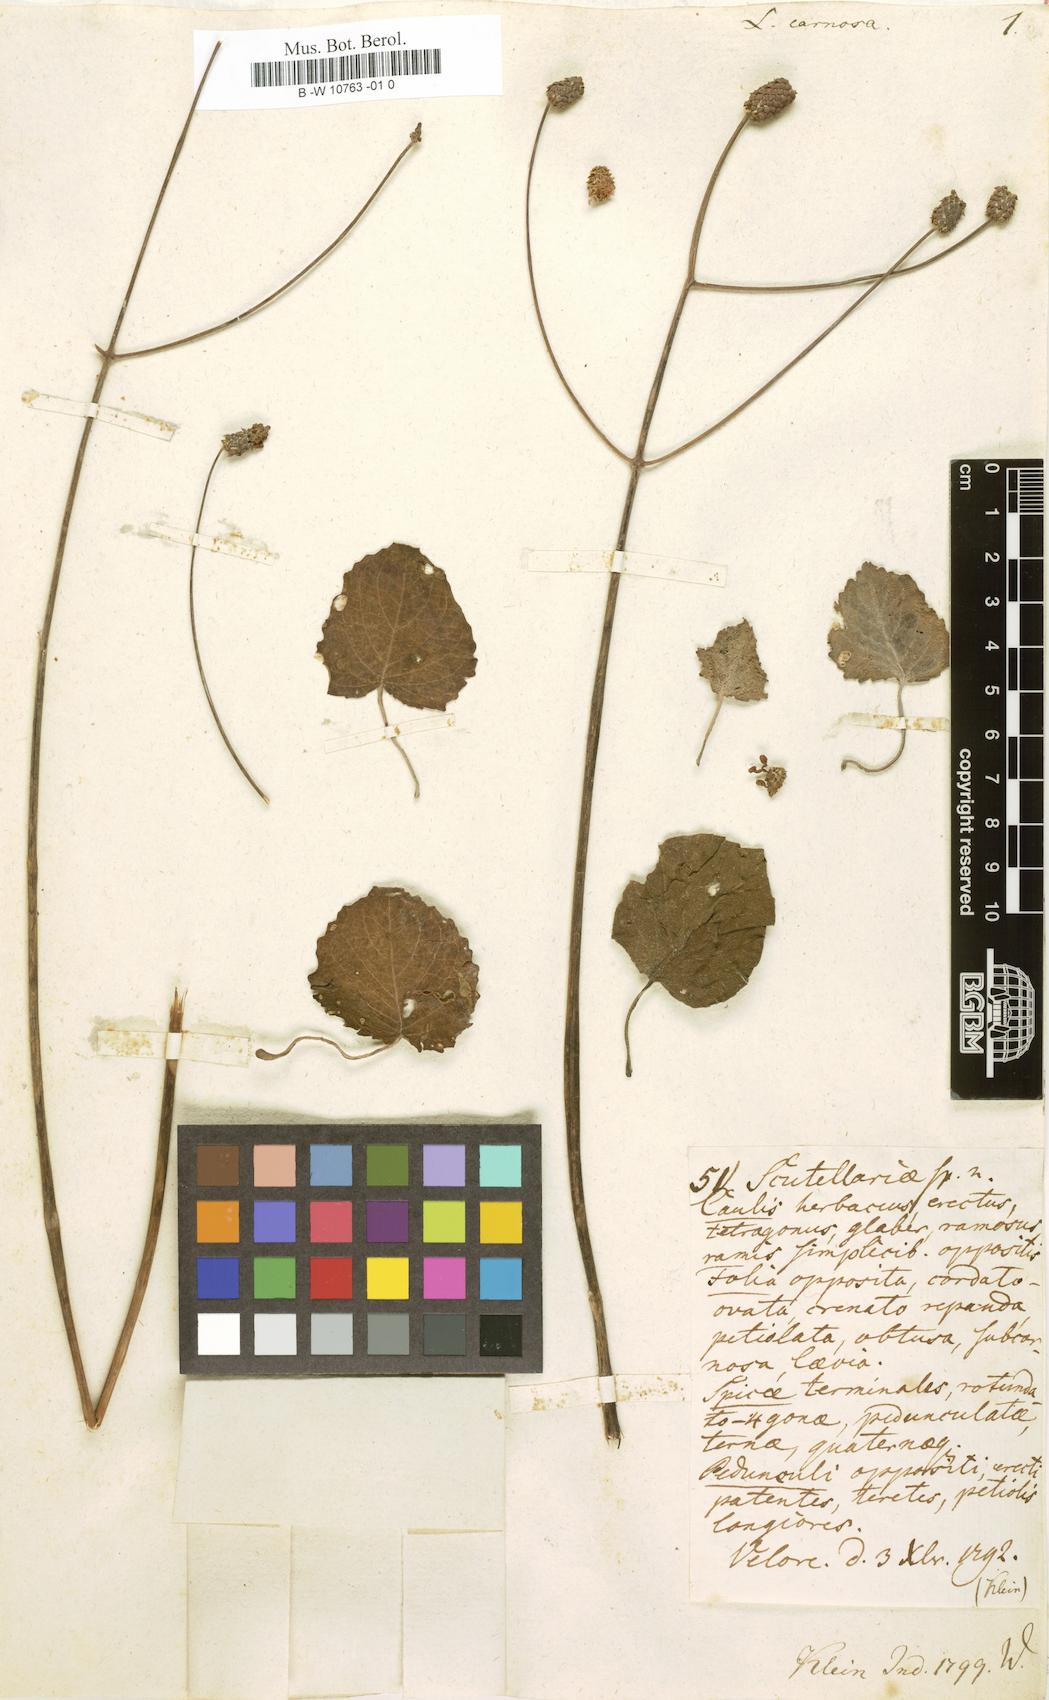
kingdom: Plantae
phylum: Tracheophyta
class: Magnoliopsida
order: Lamiales
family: Lamiaceae
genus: Coleus
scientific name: Coleus strobilifer
